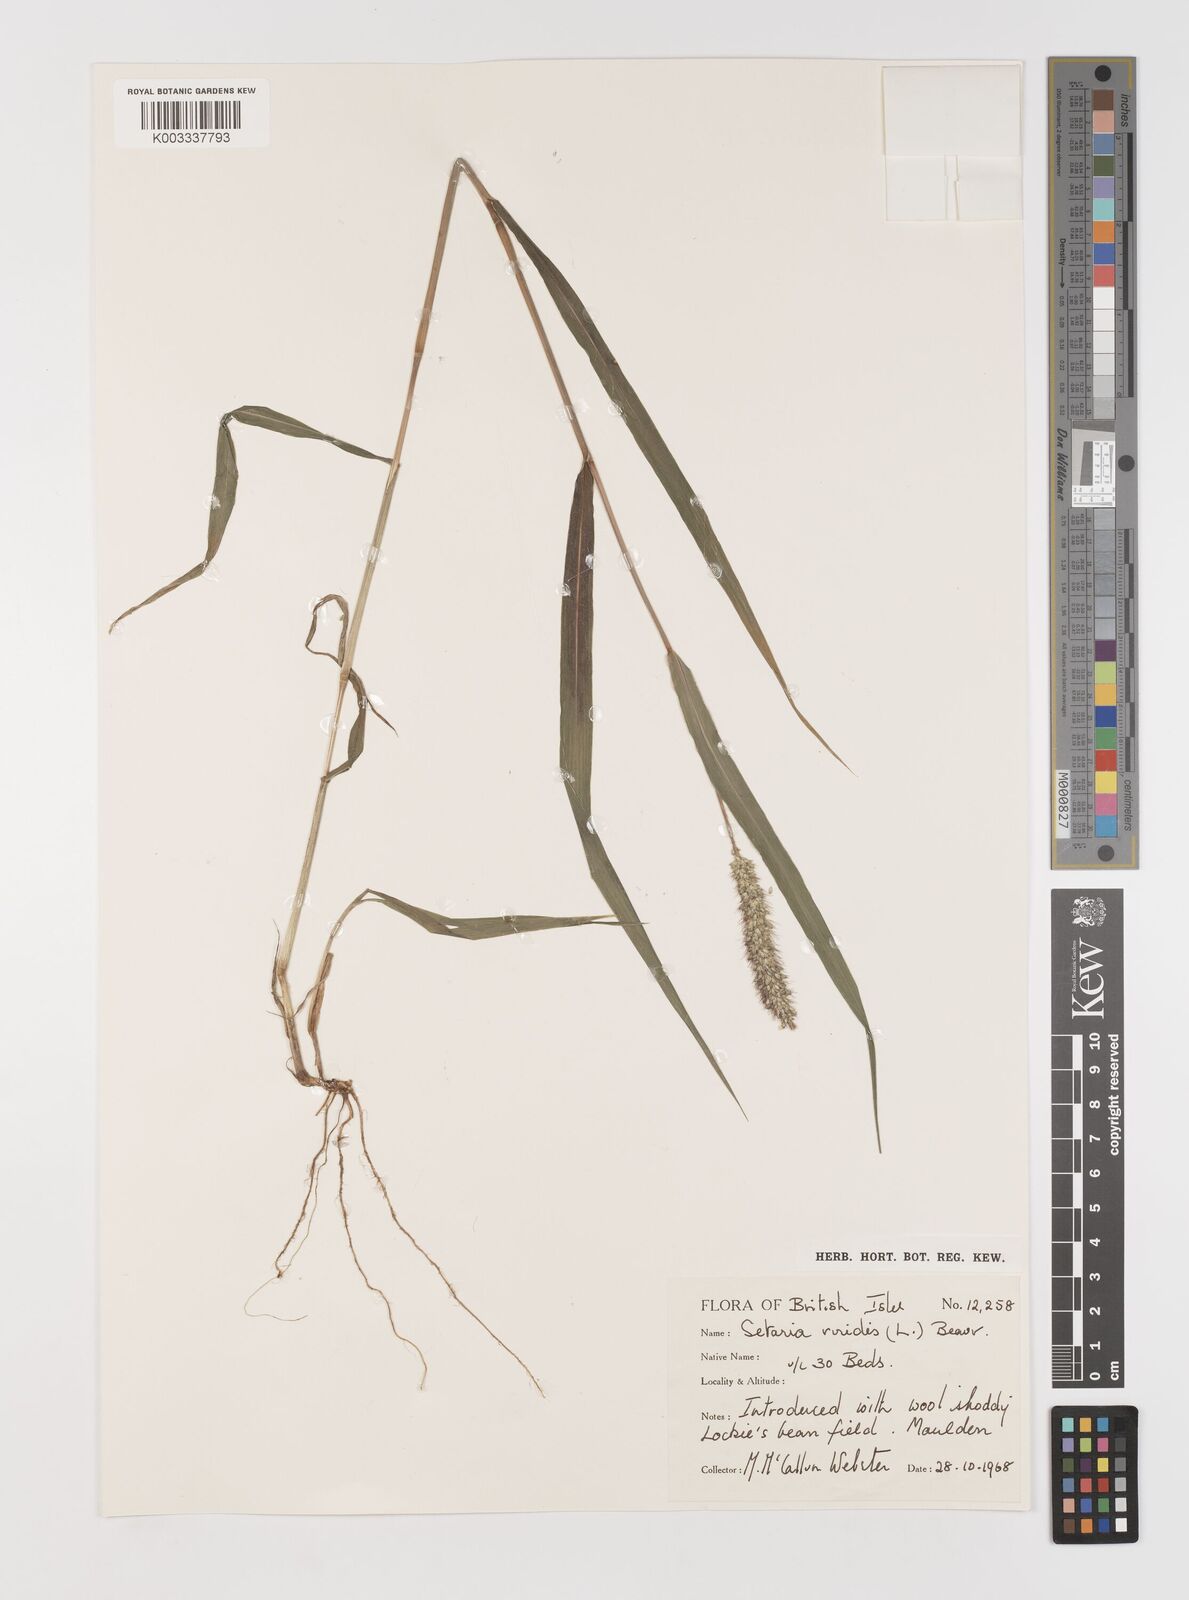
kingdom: Plantae
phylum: Tracheophyta
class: Liliopsida
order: Poales
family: Poaceae
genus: Setaria
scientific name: Setaria viridis
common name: Green bristlegrass
